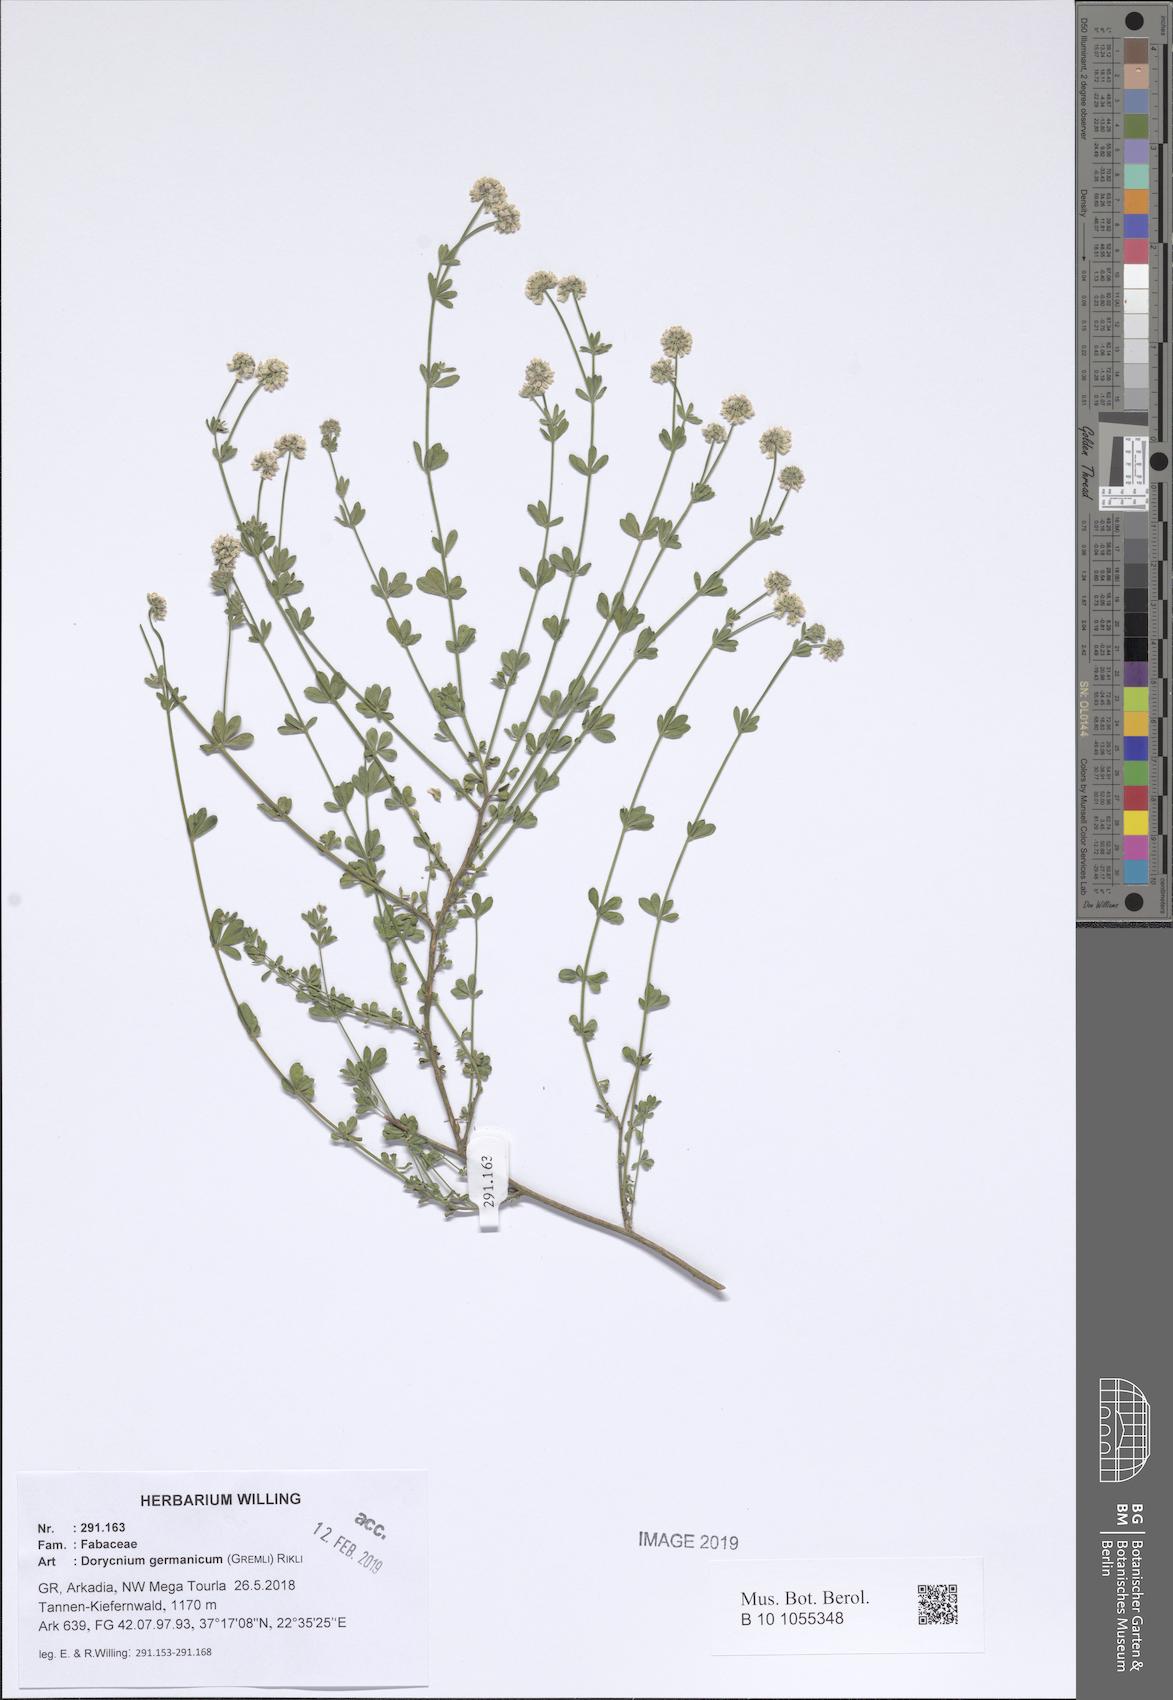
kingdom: Plantae
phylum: Tracheophyta
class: Magnoliopsida
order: Fabales
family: Fabaceae
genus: Lotus
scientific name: Lotus germanicus
